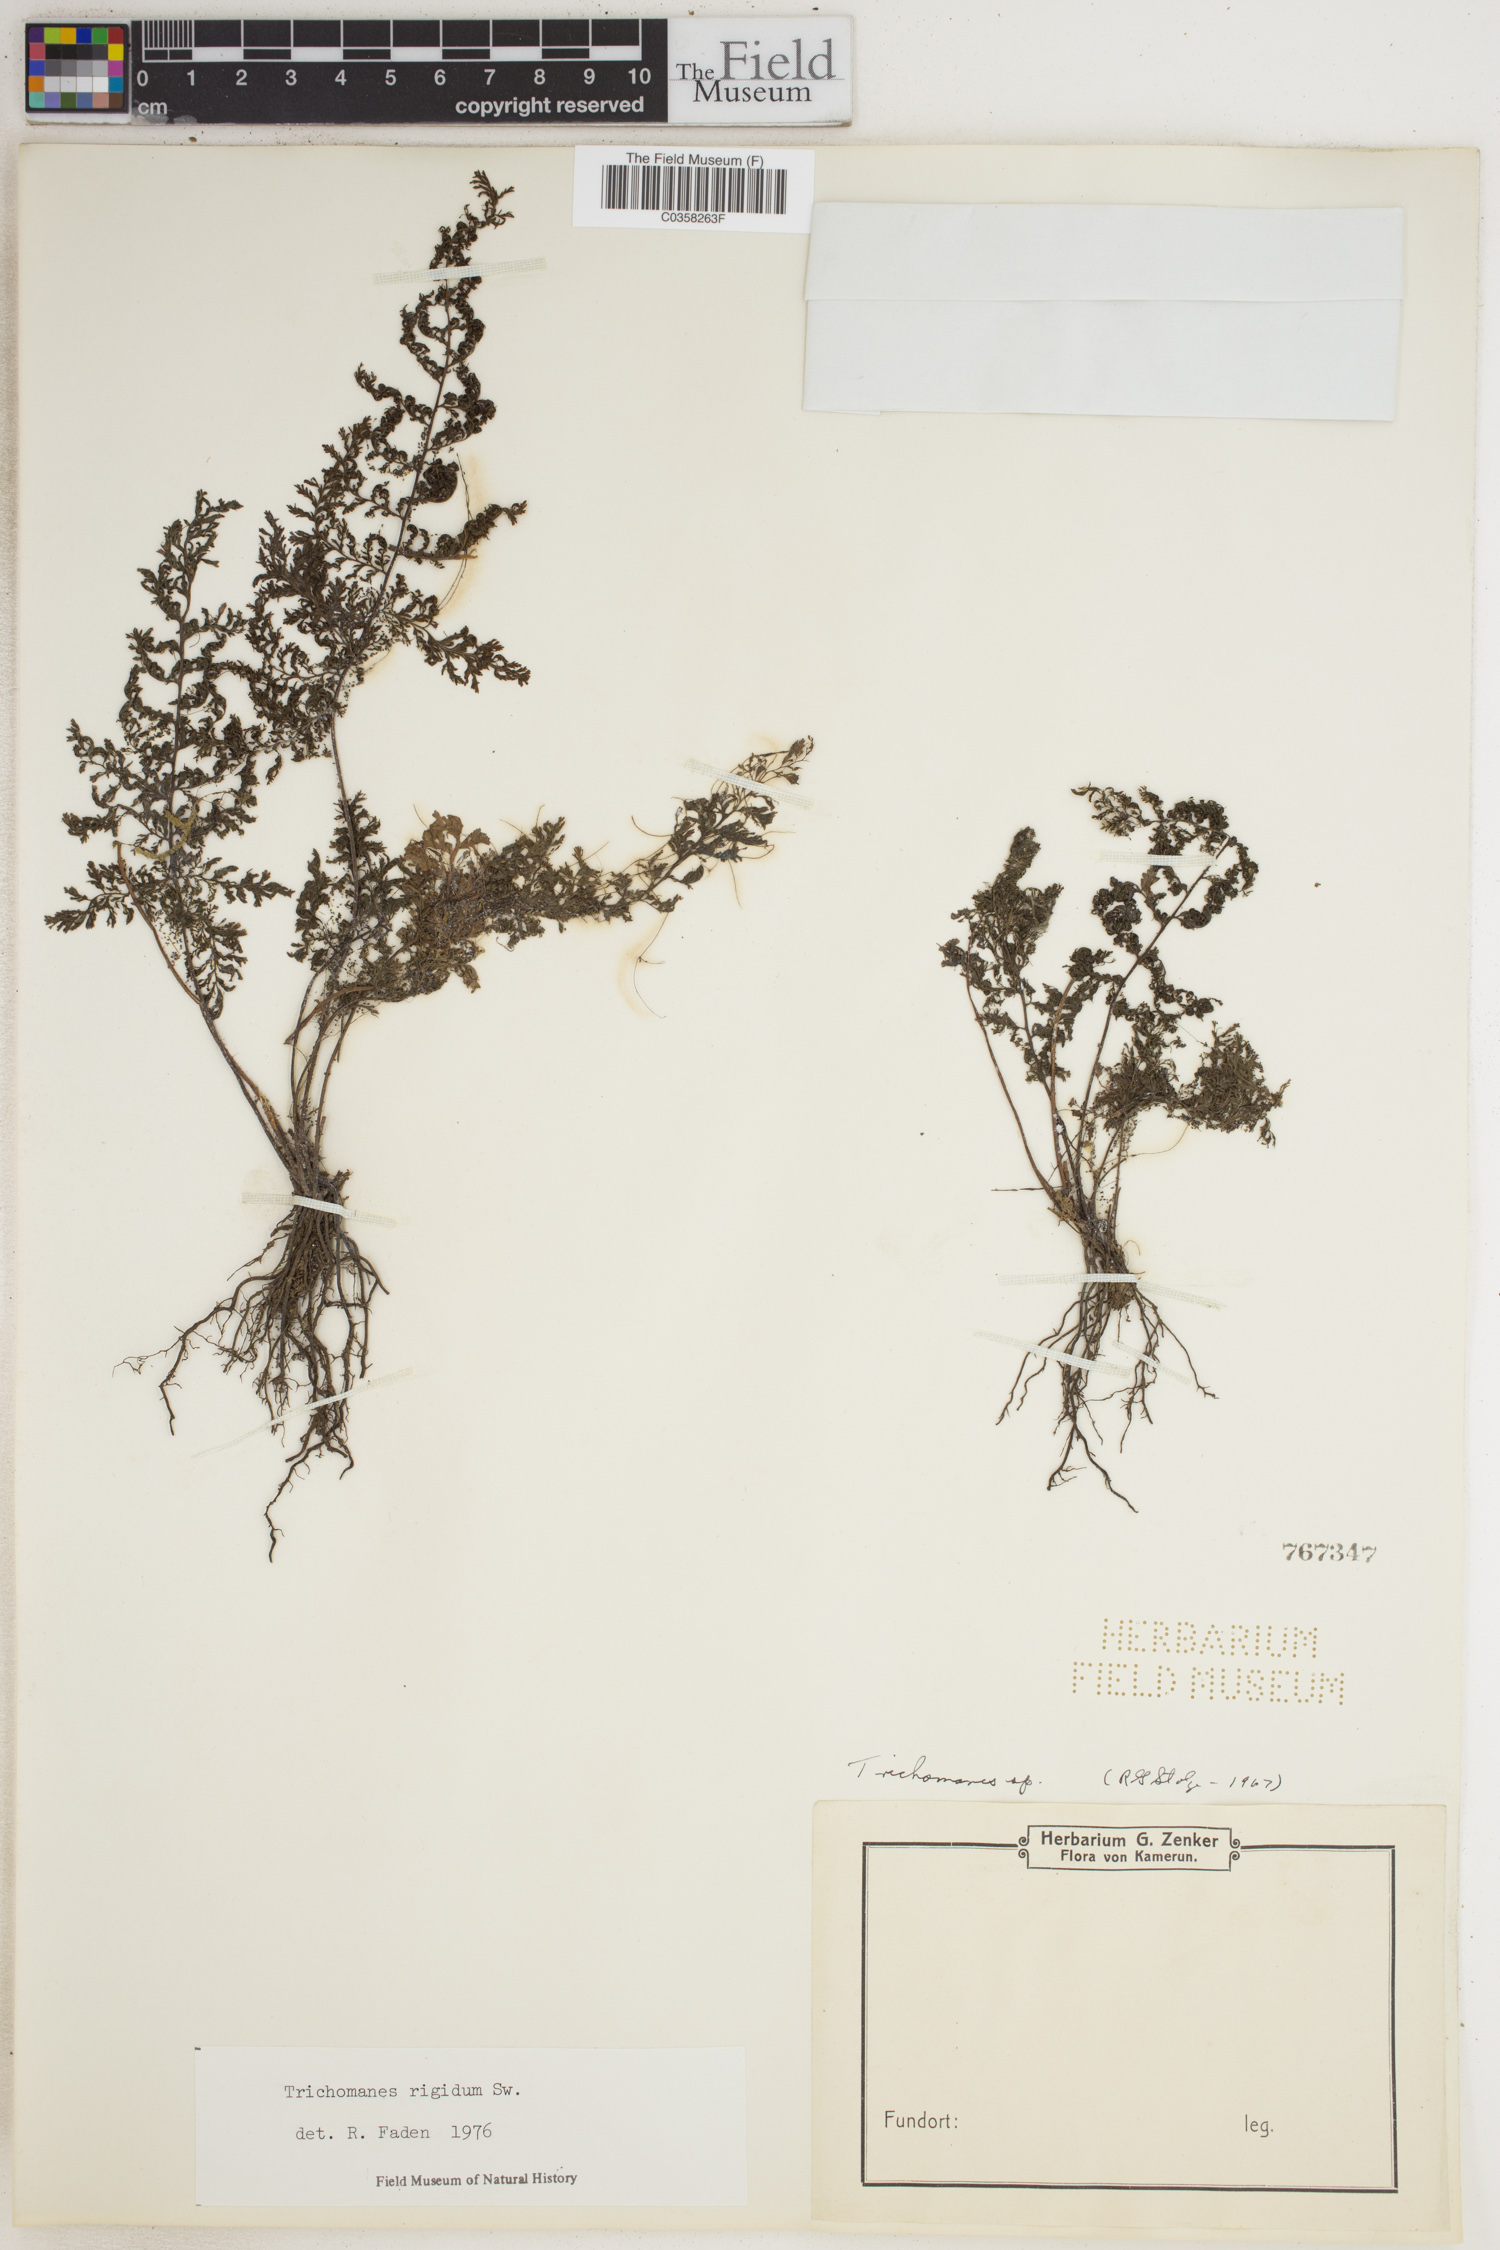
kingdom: Plantae
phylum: Tracheophyta
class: Polypodiopsida
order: Hymenophyllales
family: Hymenophyllaceae
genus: Abrodictyum
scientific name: Abrodictyum rigidum
